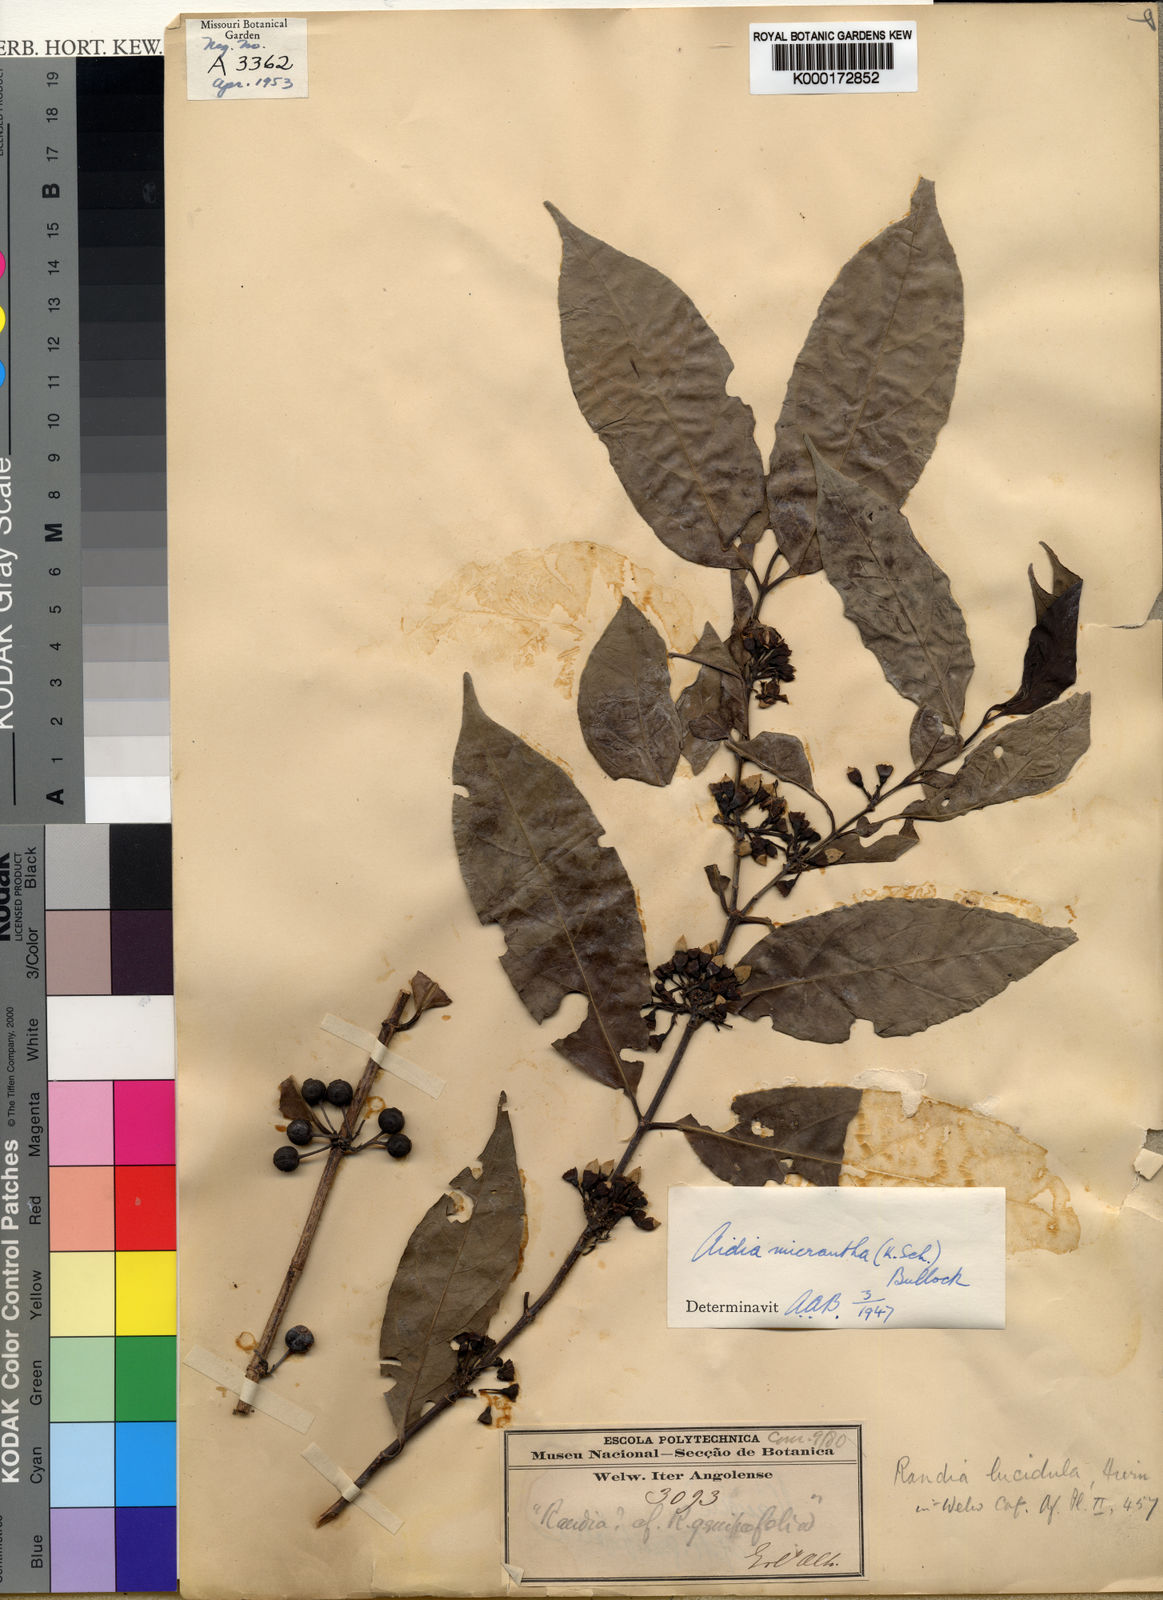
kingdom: Plantae
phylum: Tracheophyta
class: Magnoliopsida
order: Gentianales
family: Rubiaceae
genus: Aidia
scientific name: Aidia micrantha
